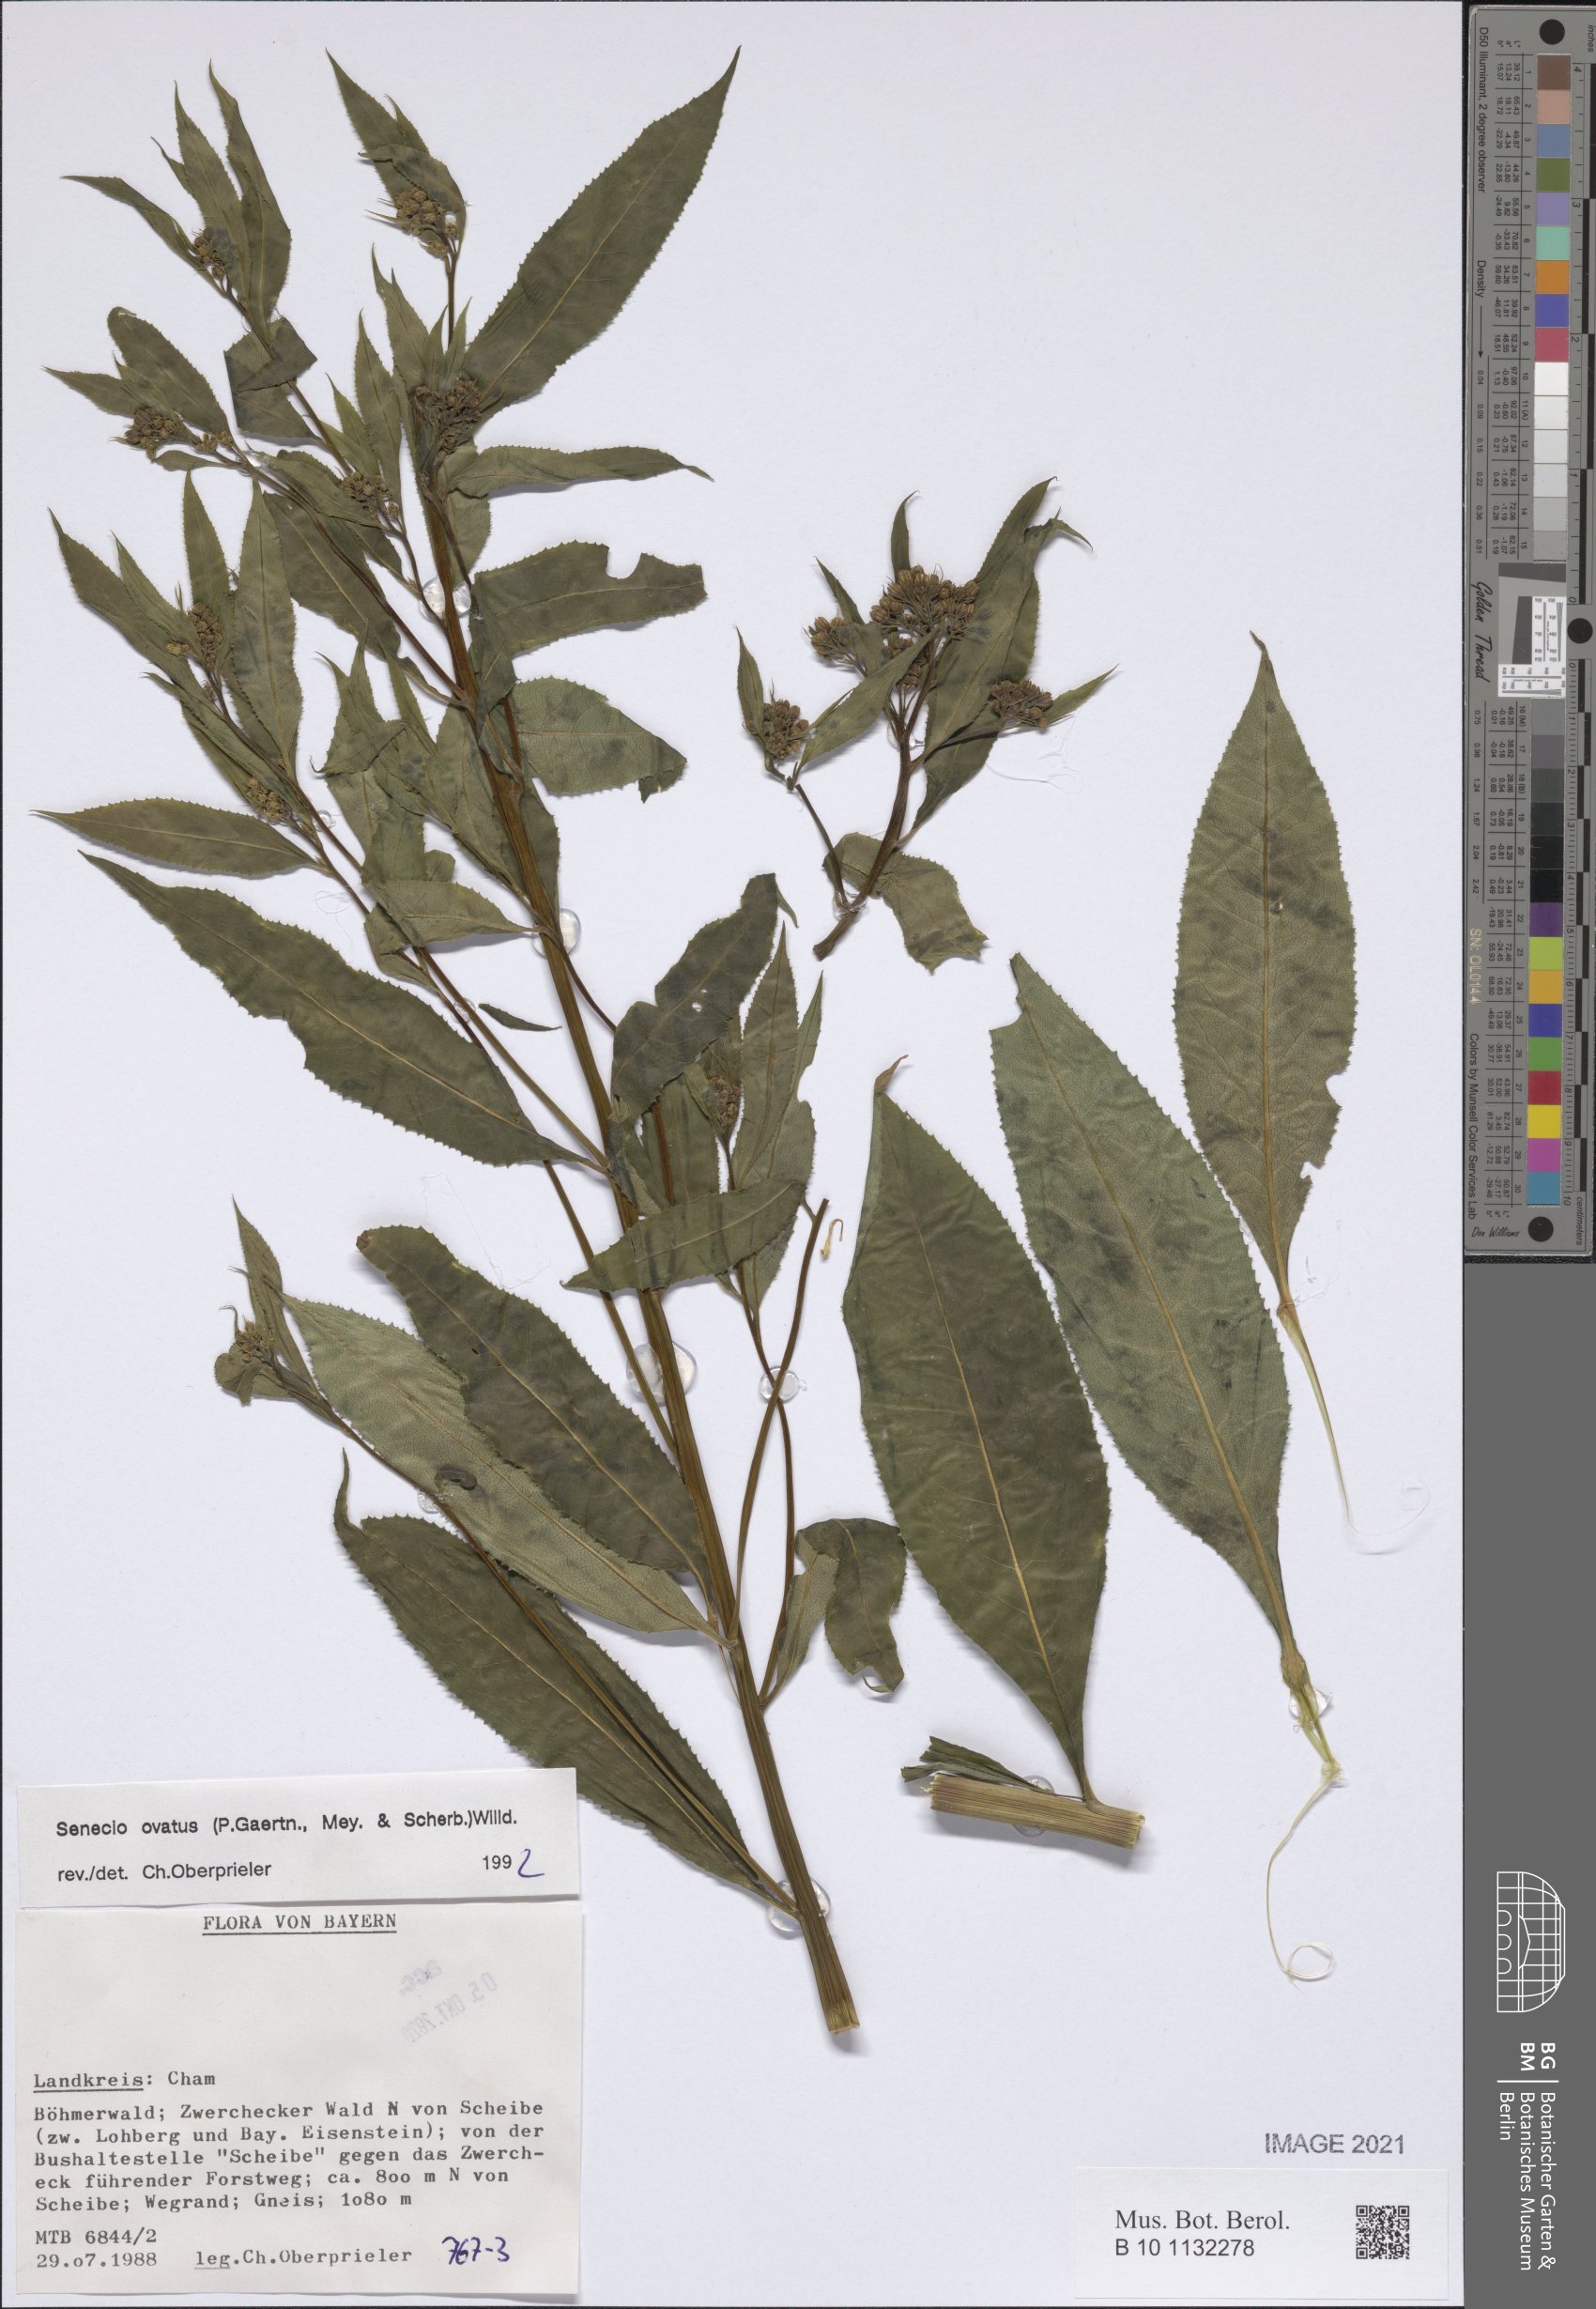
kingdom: Plantae
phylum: Tracheophyta
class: Magnoliopsida
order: Asterales
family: Asteraceae
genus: Senecio
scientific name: Senecio ovatus
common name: Wood ragwort
